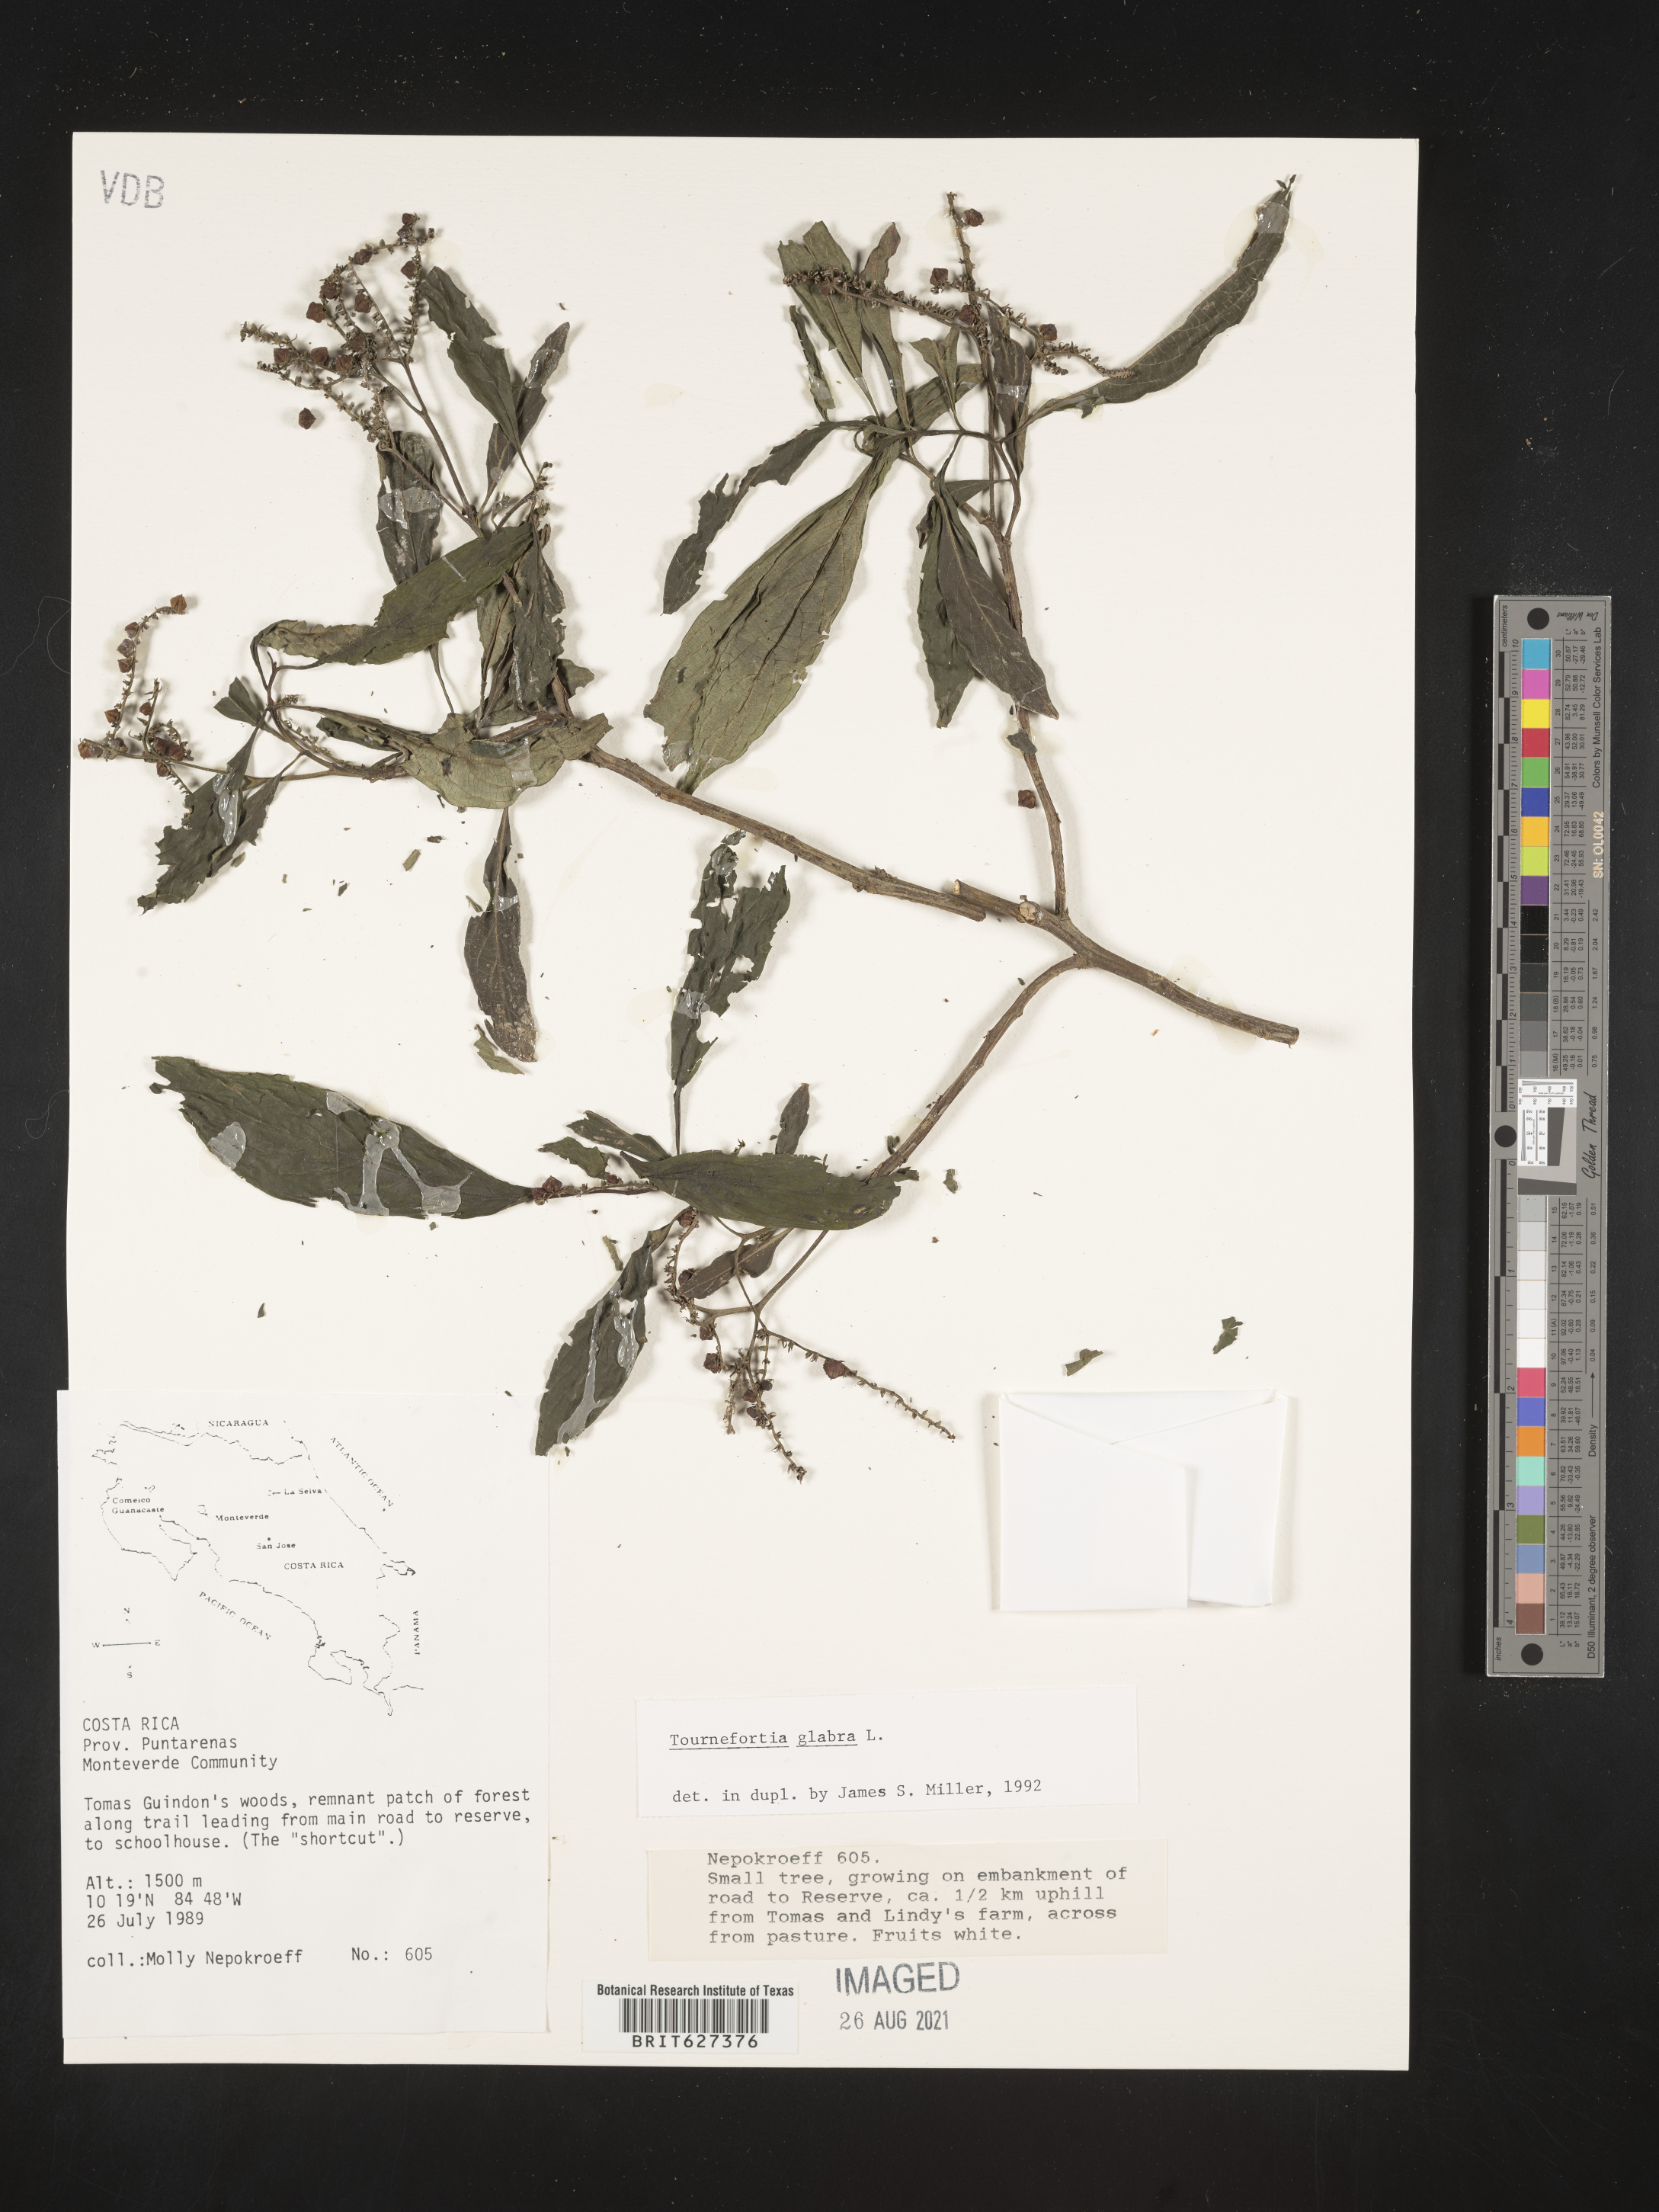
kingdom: Plantae
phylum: Tracheophyta
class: Magnoliopsida
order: Boraginales
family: Heliotropiaceae
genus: Heliotropium
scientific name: Heliotropium laevigatum
